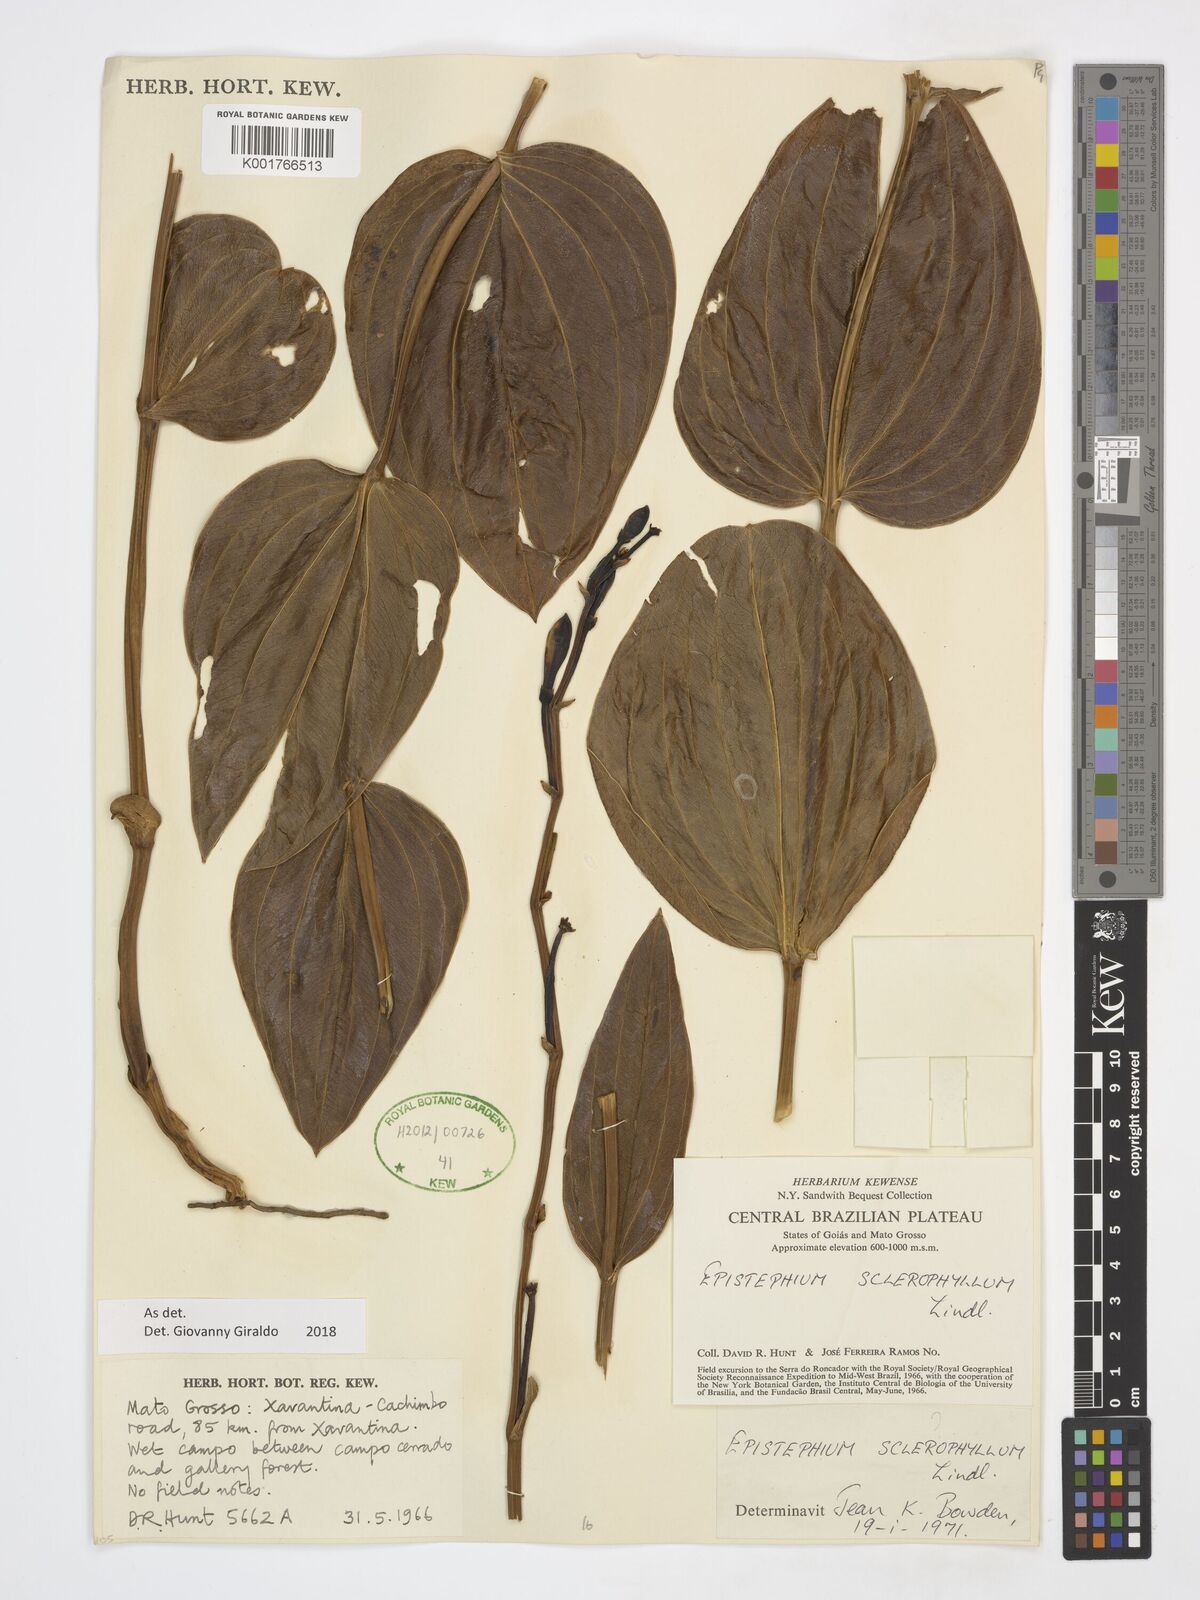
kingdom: Plantae
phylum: Tracheophyta
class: Liliopsida
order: Asparagales
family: Orchidaceae
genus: Epistephium
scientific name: Epistephium sclerophyllum
